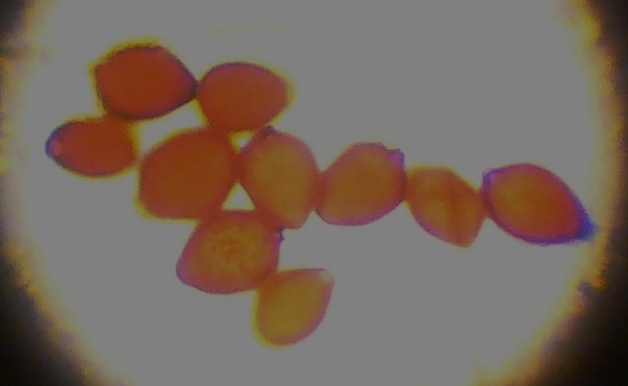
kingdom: Fungi
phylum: Basidiomycota
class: Agaricomycetes
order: Agaricales
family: Psathyrellaceae
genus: Parasola
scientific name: Parasola kuehneri
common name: skygge-hjulhat
